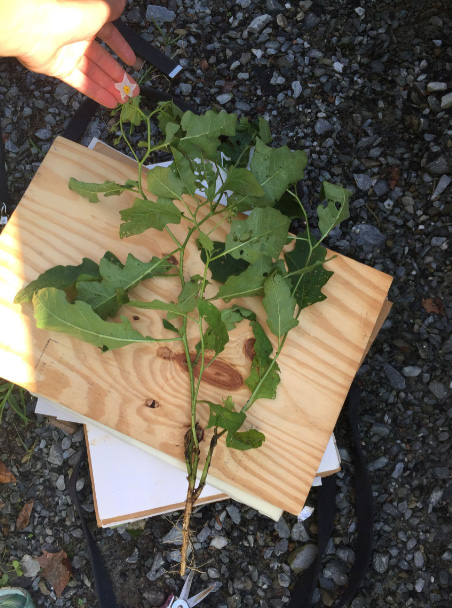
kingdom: Plantae
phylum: Tracheophyta
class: Magnoliopsida
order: Solanales
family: Solanaceae
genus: Solanum
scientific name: Solanum carolinense
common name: Carolina Horsenettle
